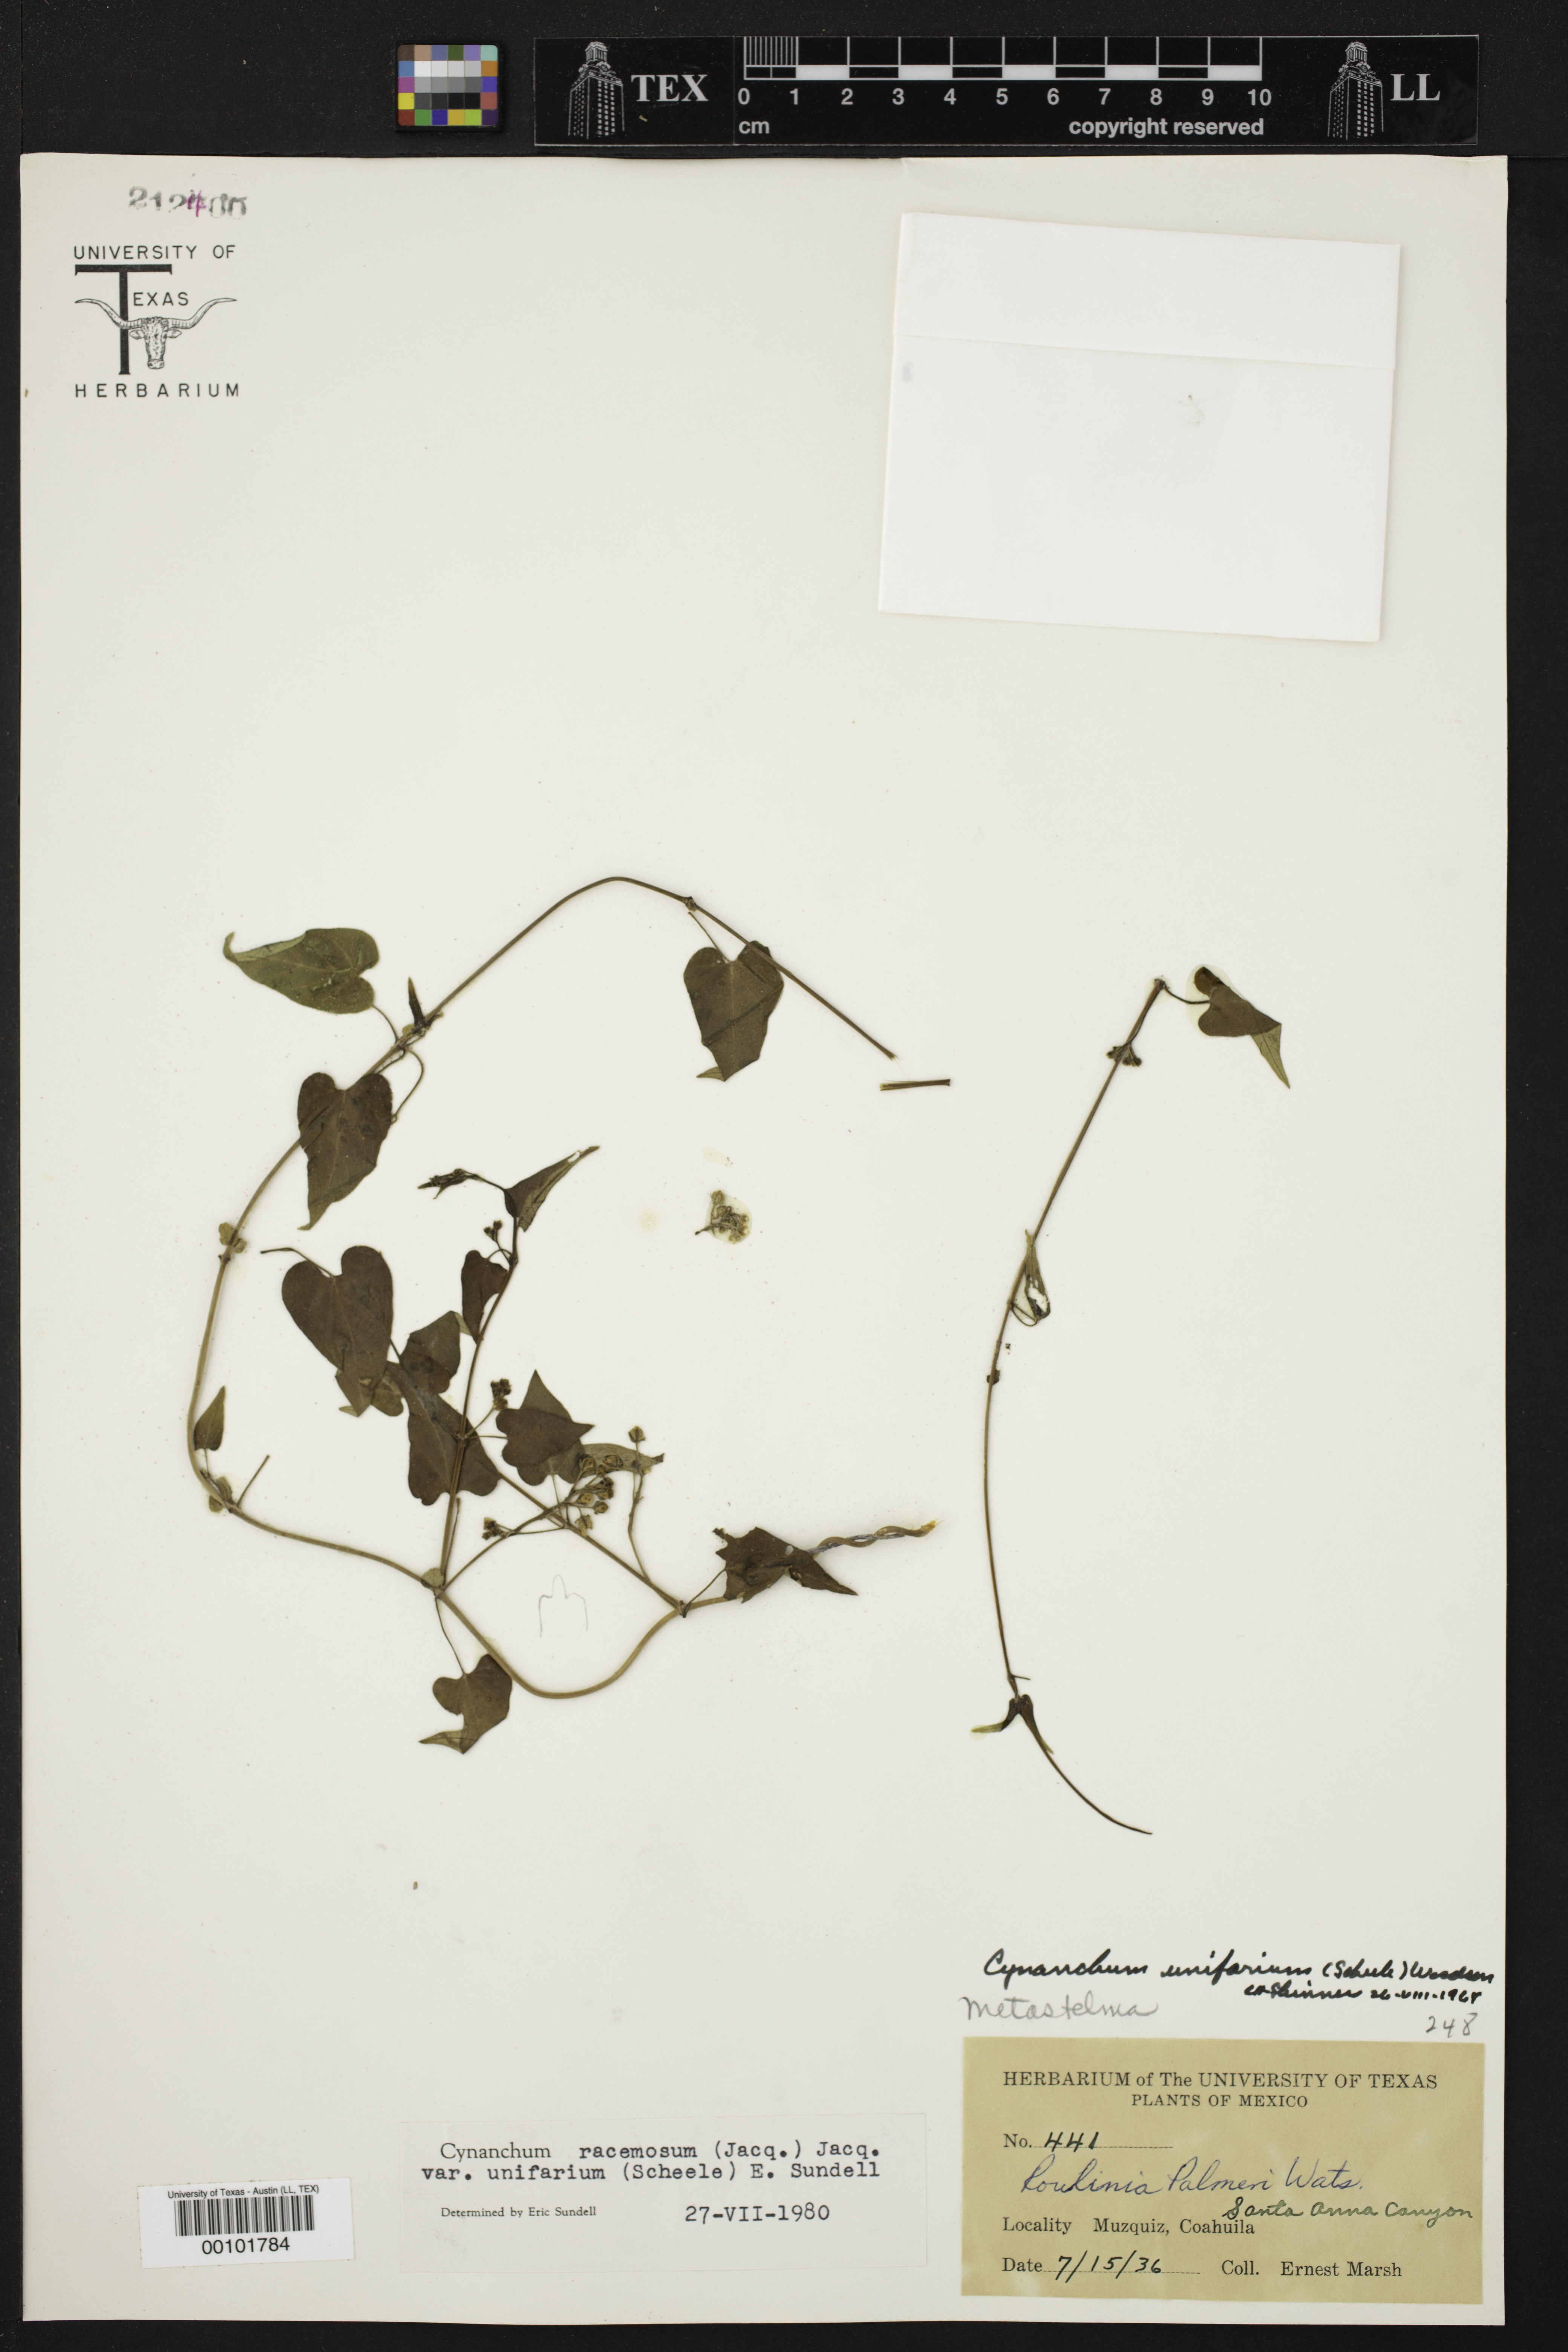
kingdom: Plantae
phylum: Tracheophyta
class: Magnoliopsida
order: Gentianales
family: Apocynaceae
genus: Cynanchum
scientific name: Cynanchum racemosum
